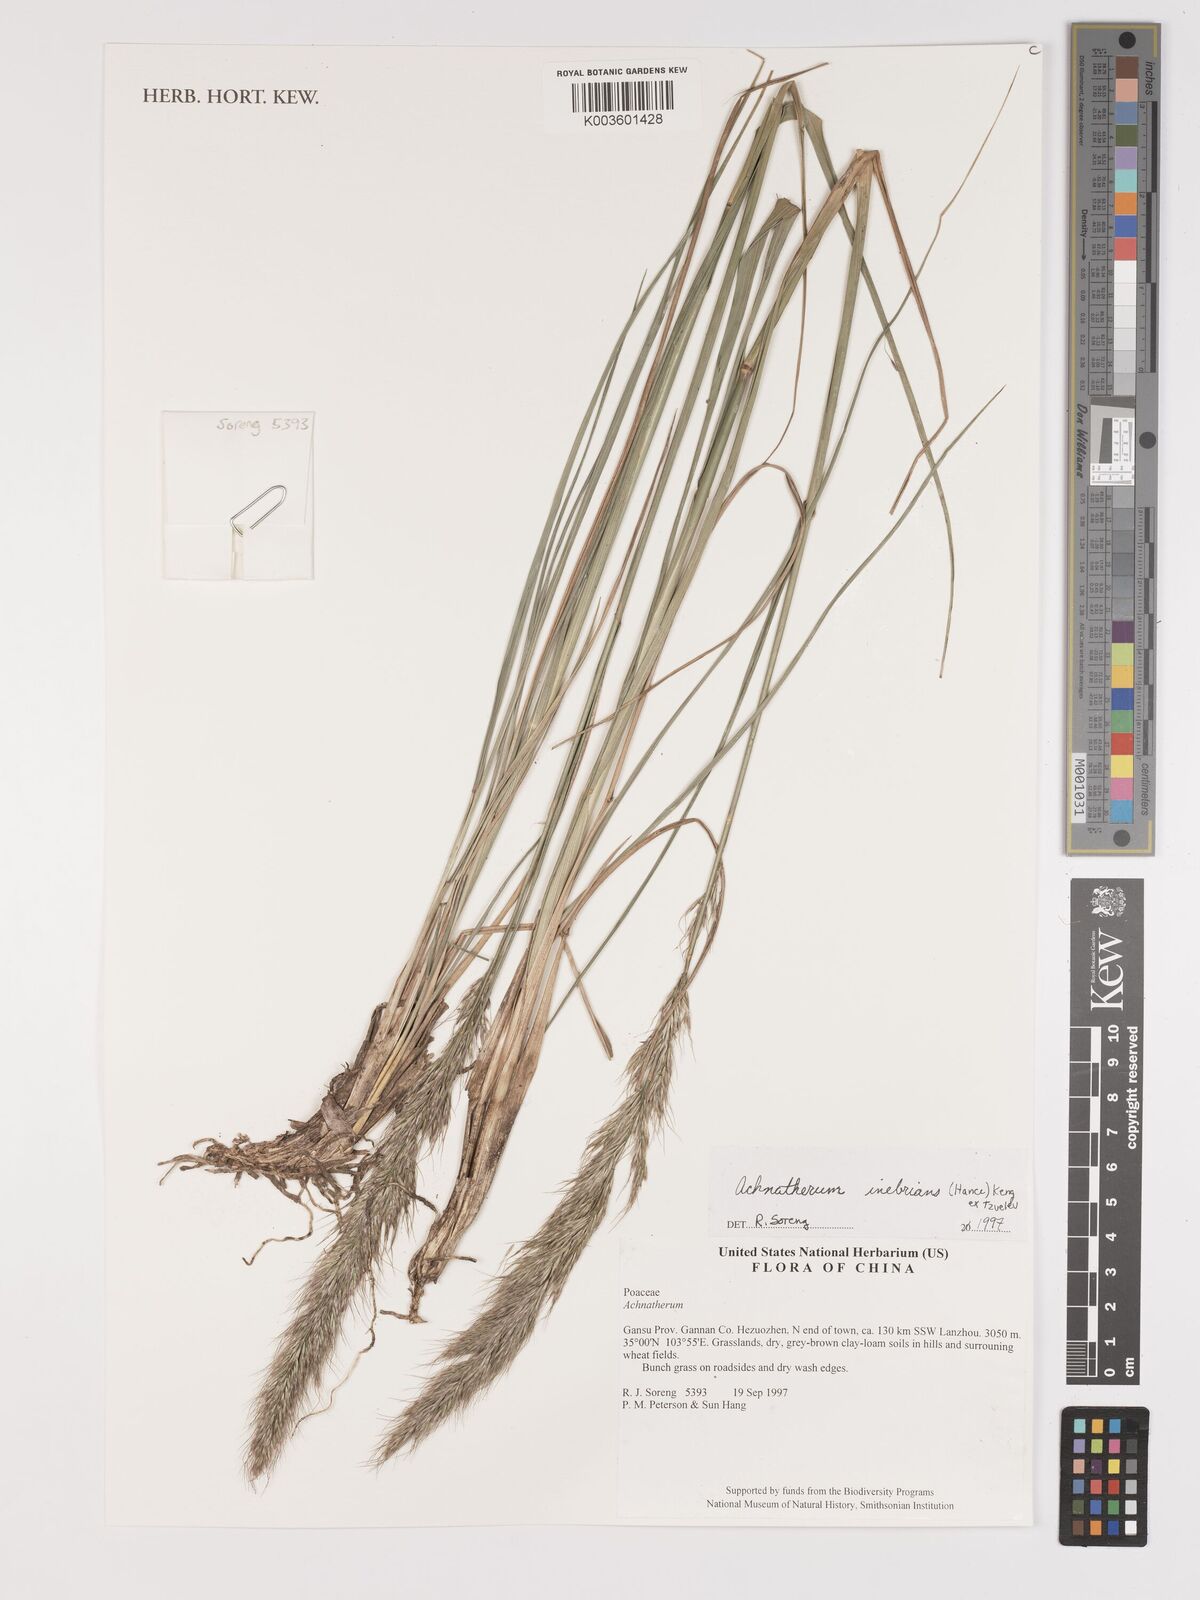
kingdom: Plantae
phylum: Tracheophyta
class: Liliopsida
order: Poales
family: Poaceae
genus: Achnatherum
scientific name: Achnatherum inebrians
